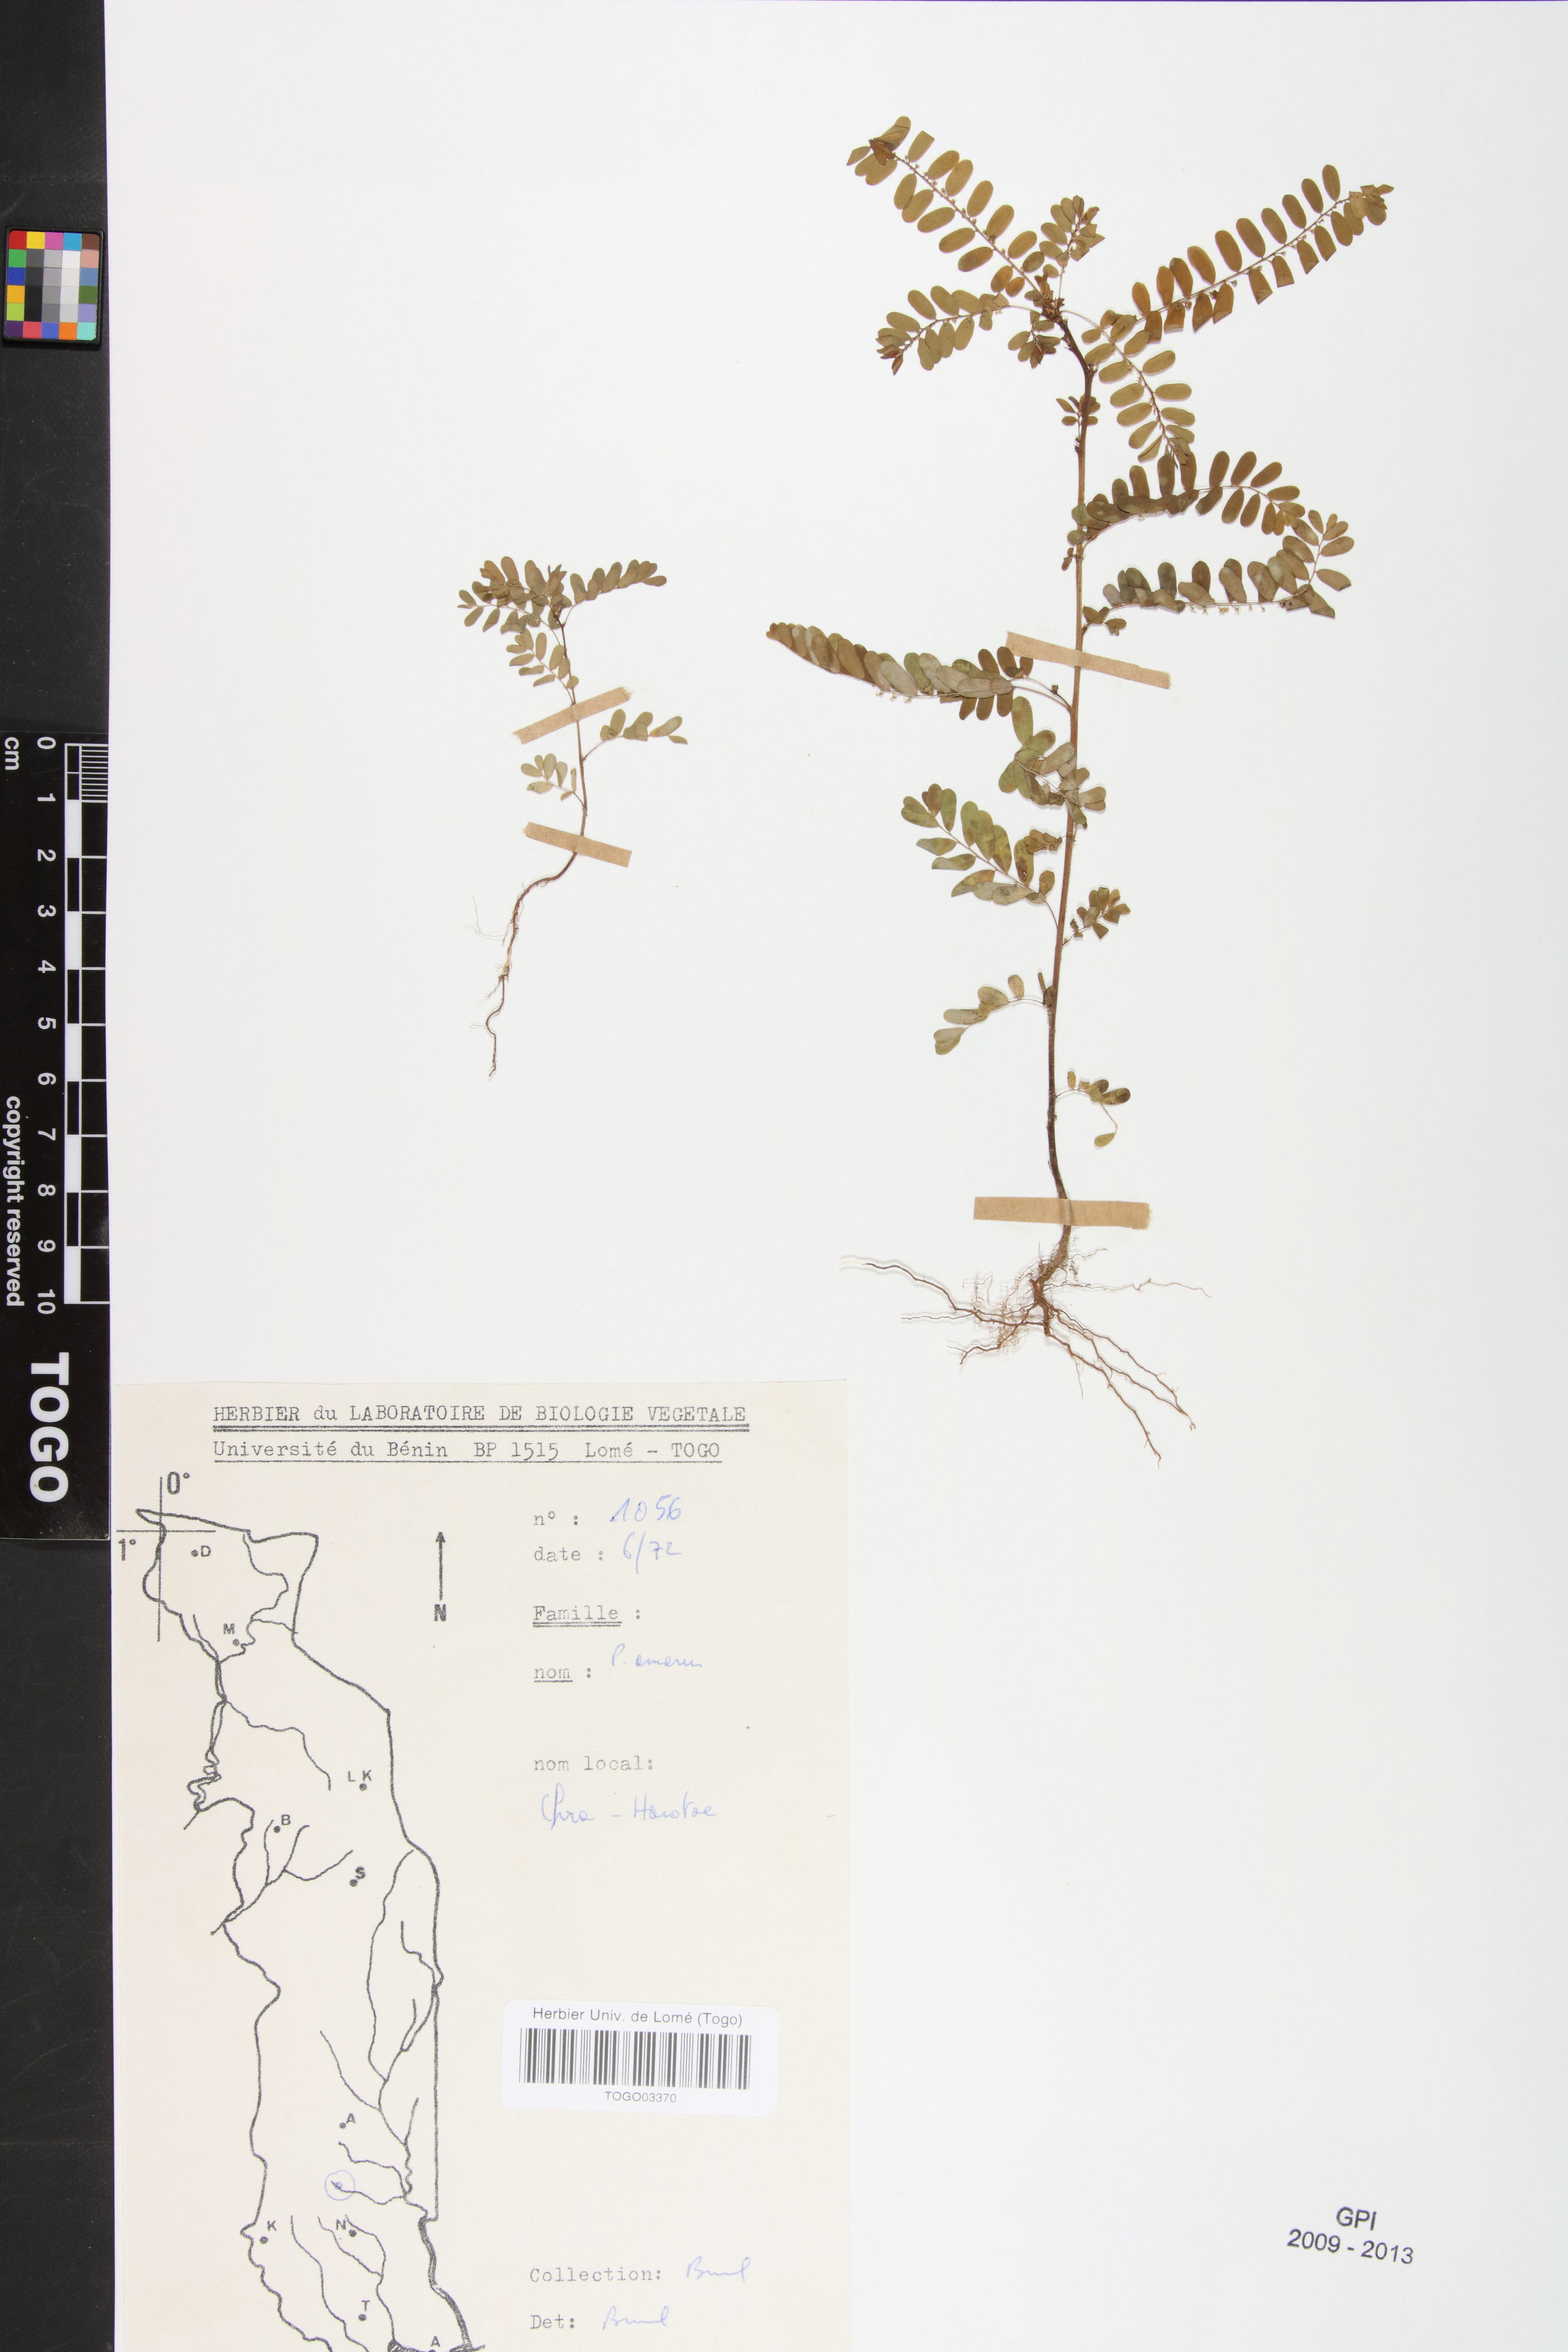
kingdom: Plantae
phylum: Tracheophyta
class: Magnoliopsida
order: Malpighiales
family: Phyllanthaceae
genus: Phyllanthus
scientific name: Phyllanthus amarus
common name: Carry me seed
